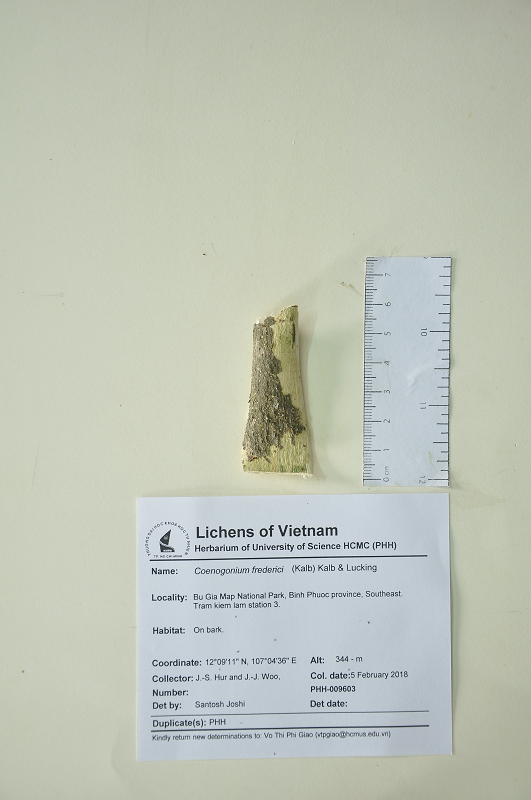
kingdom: Fungi
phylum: Ascomycota
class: Lecanoromycetes
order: Ostropales
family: Coenogoniaceae
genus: Coenogonium
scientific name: Coenogonium frederici
